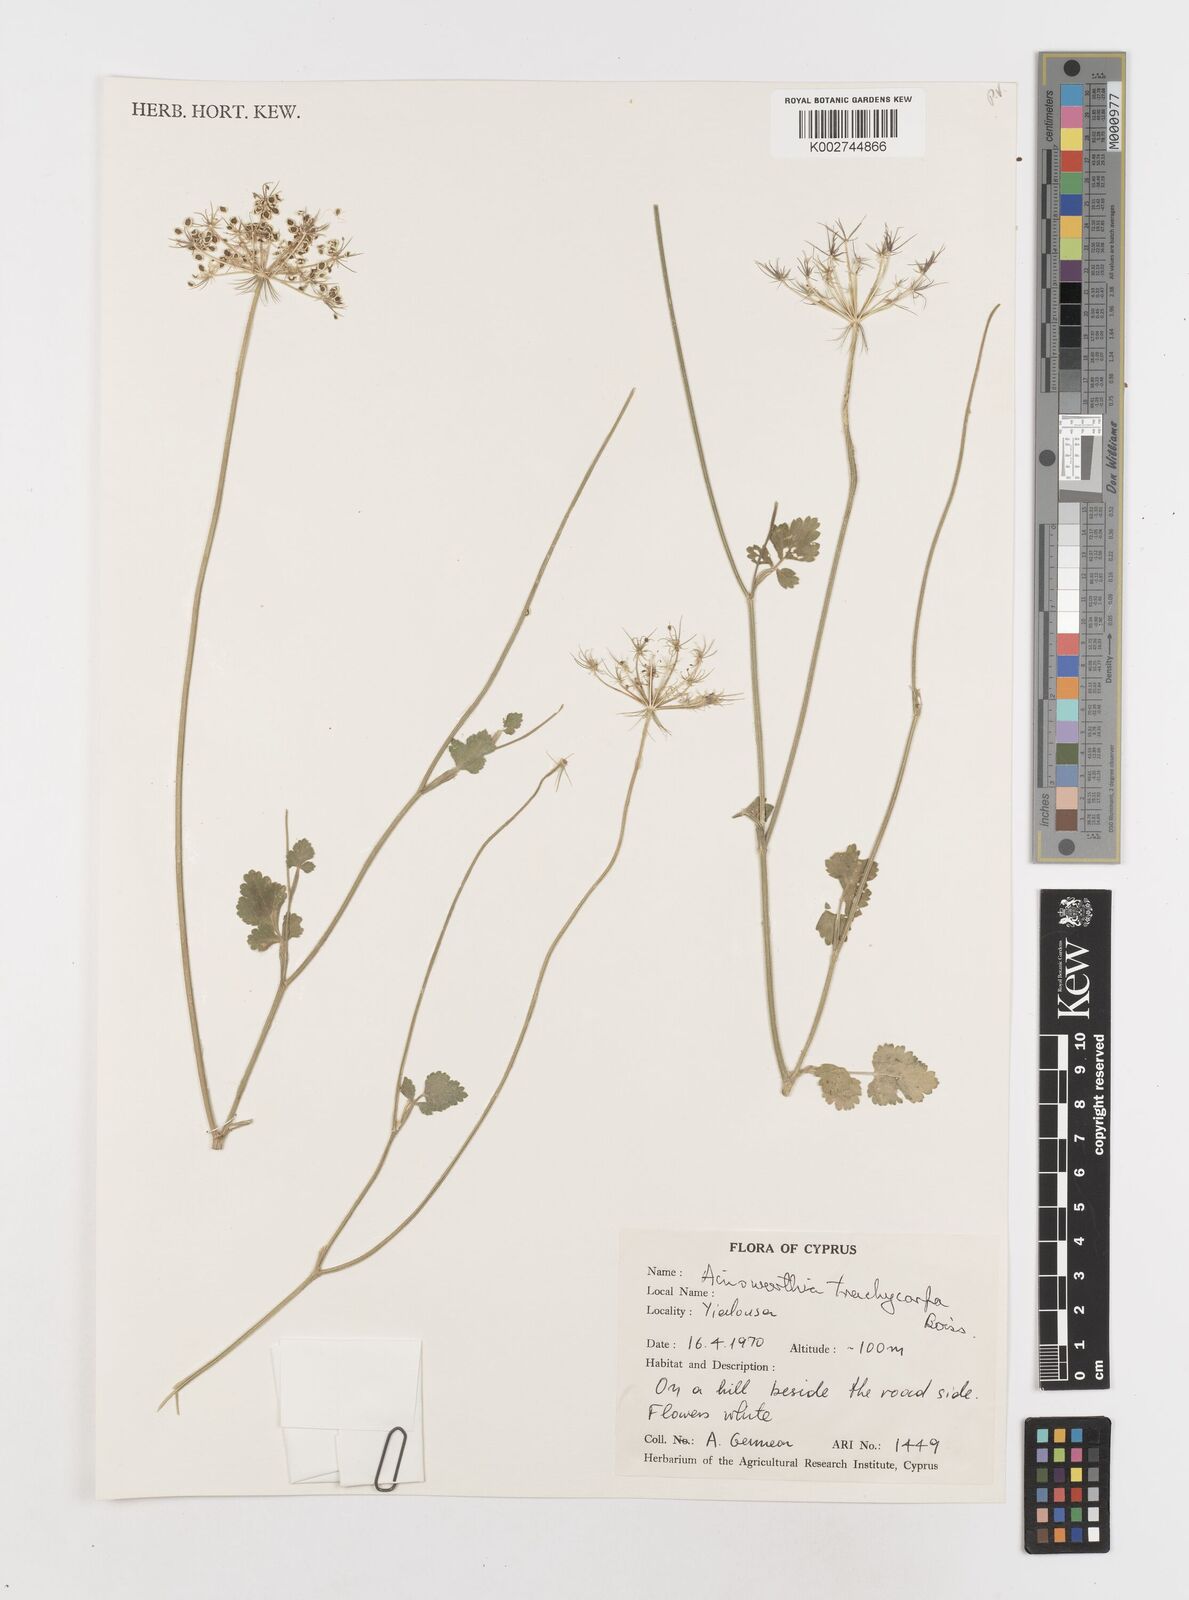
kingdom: Plantae
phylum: Tracheophyta
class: Magnoliopsida
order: Apiales
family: Apiaceae
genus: Ainsworthia
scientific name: Ainsworthia cordata
